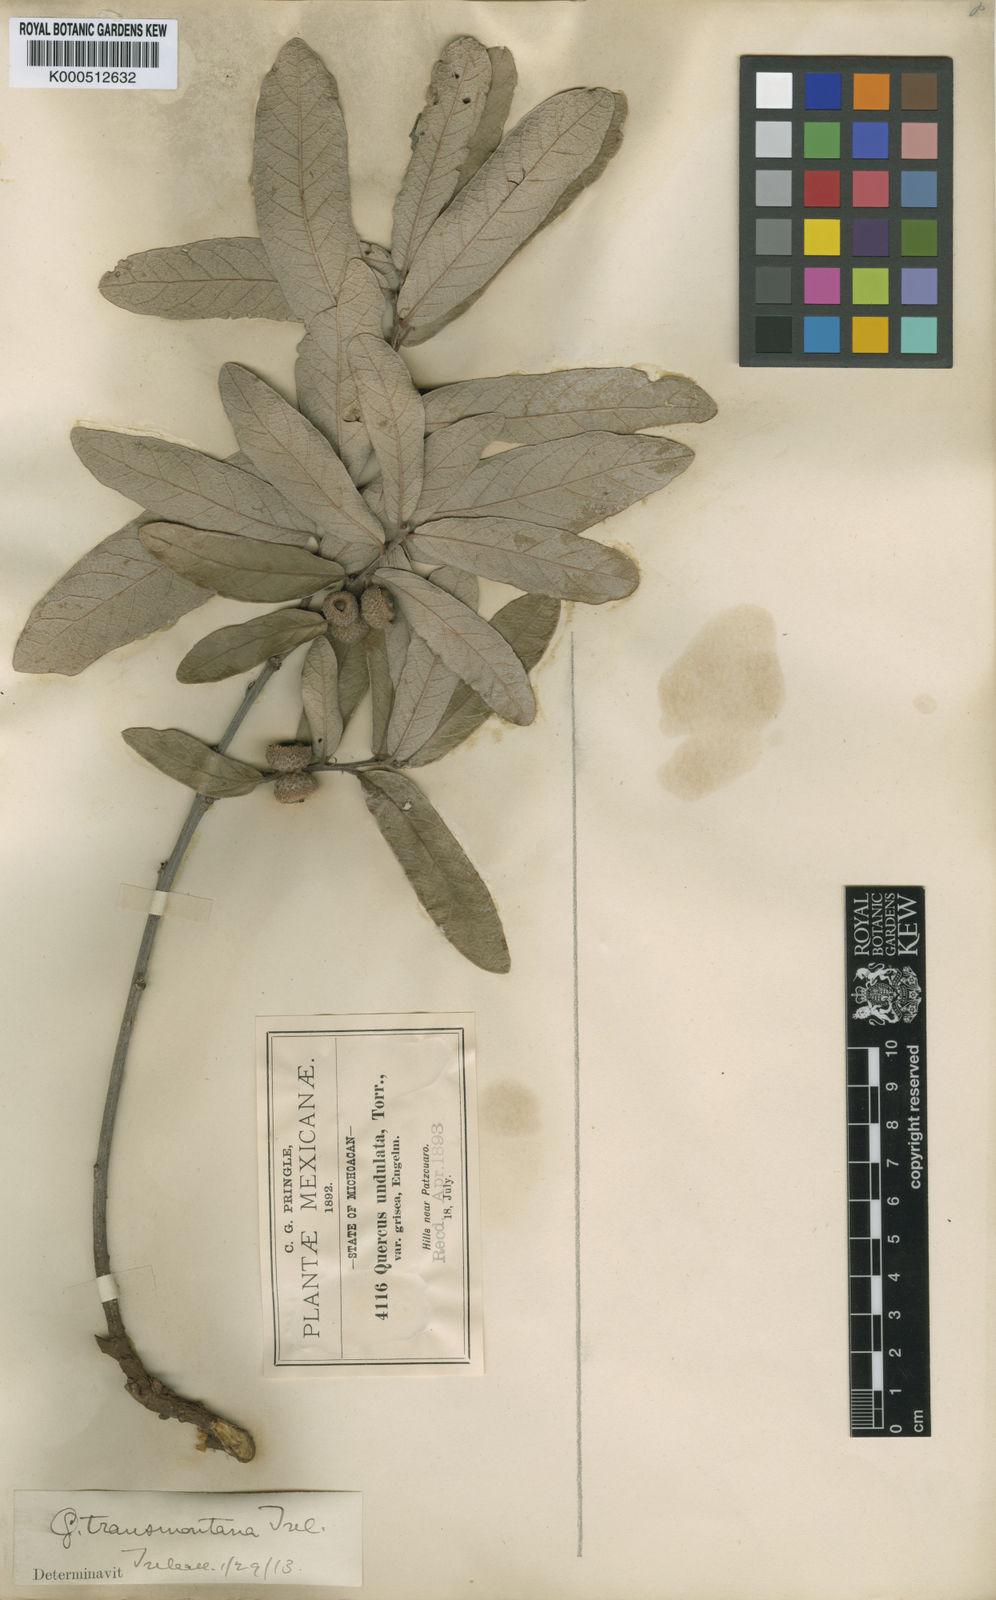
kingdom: Plantae
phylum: Tracheophyta
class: Magnoliopsida
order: Fagales
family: Fagaceae
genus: Quercus
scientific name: Quercus laeta
